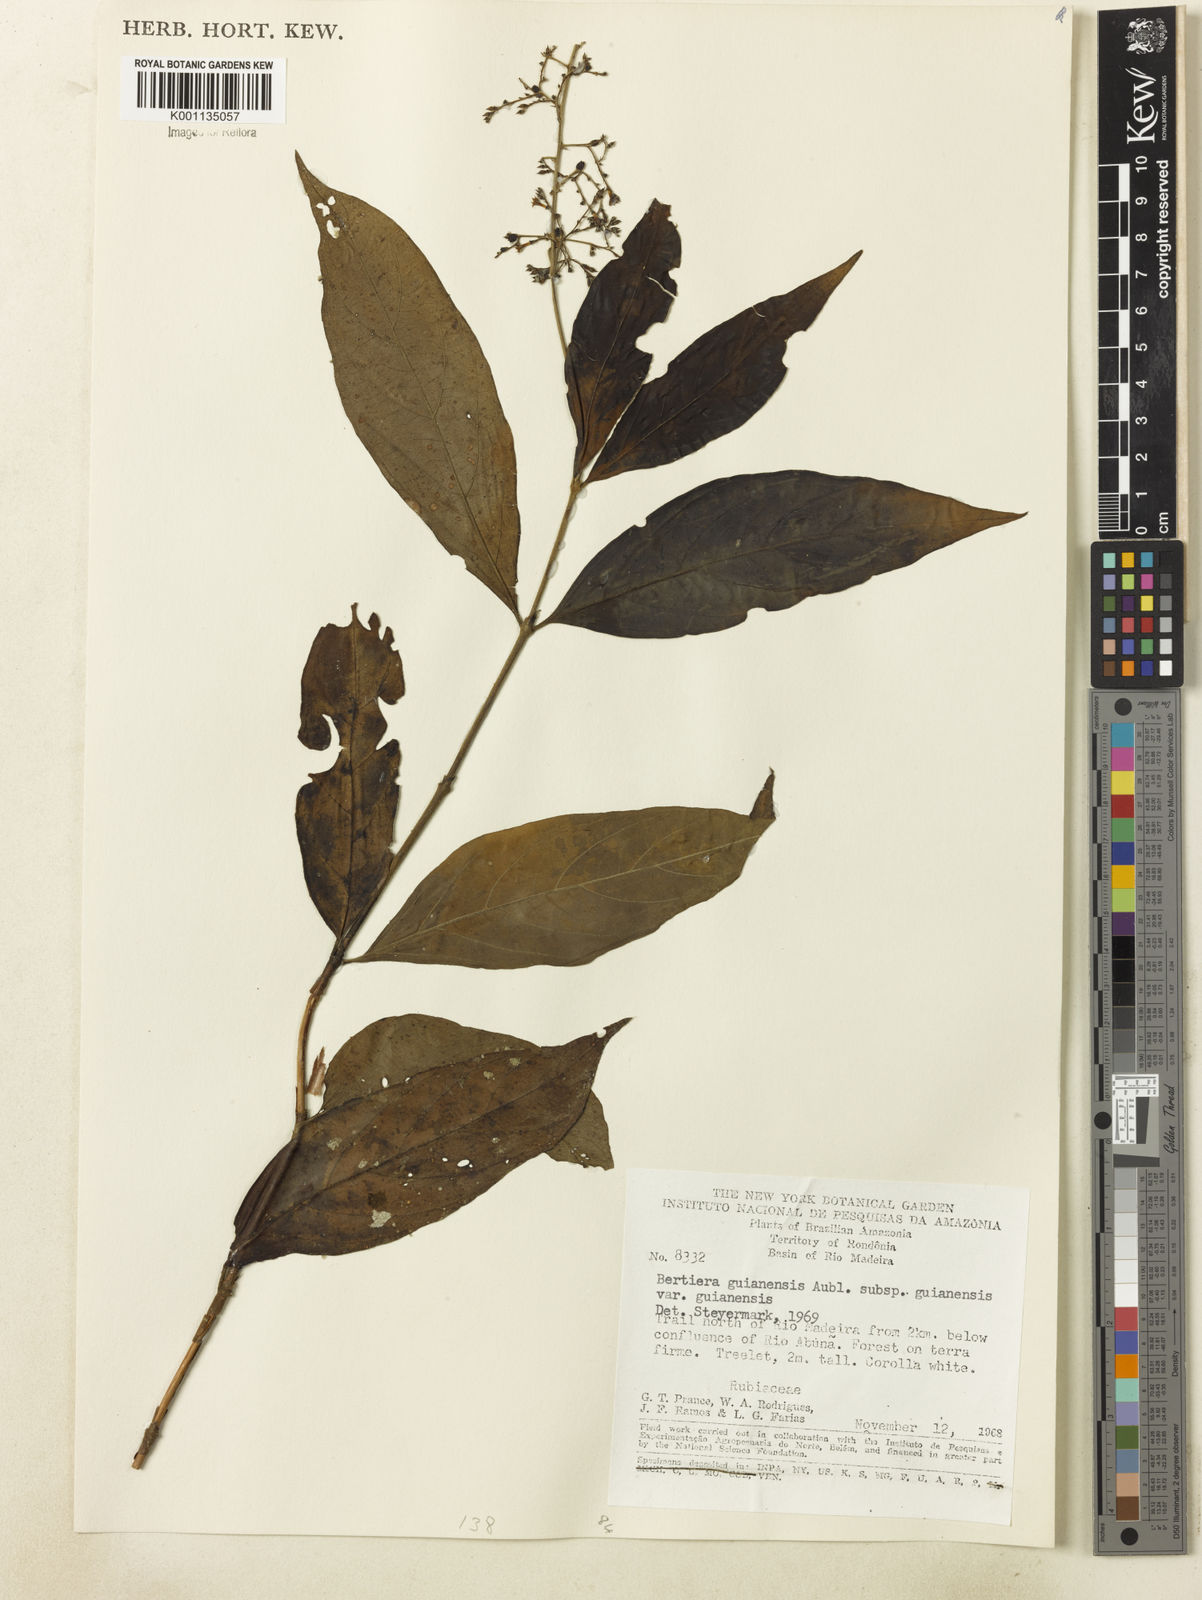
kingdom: Plantae
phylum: Tracheophyta
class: Magnoliopsida
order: Gentianales
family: Rubiaceae
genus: Bertiera
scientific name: Bertiera guianensis
